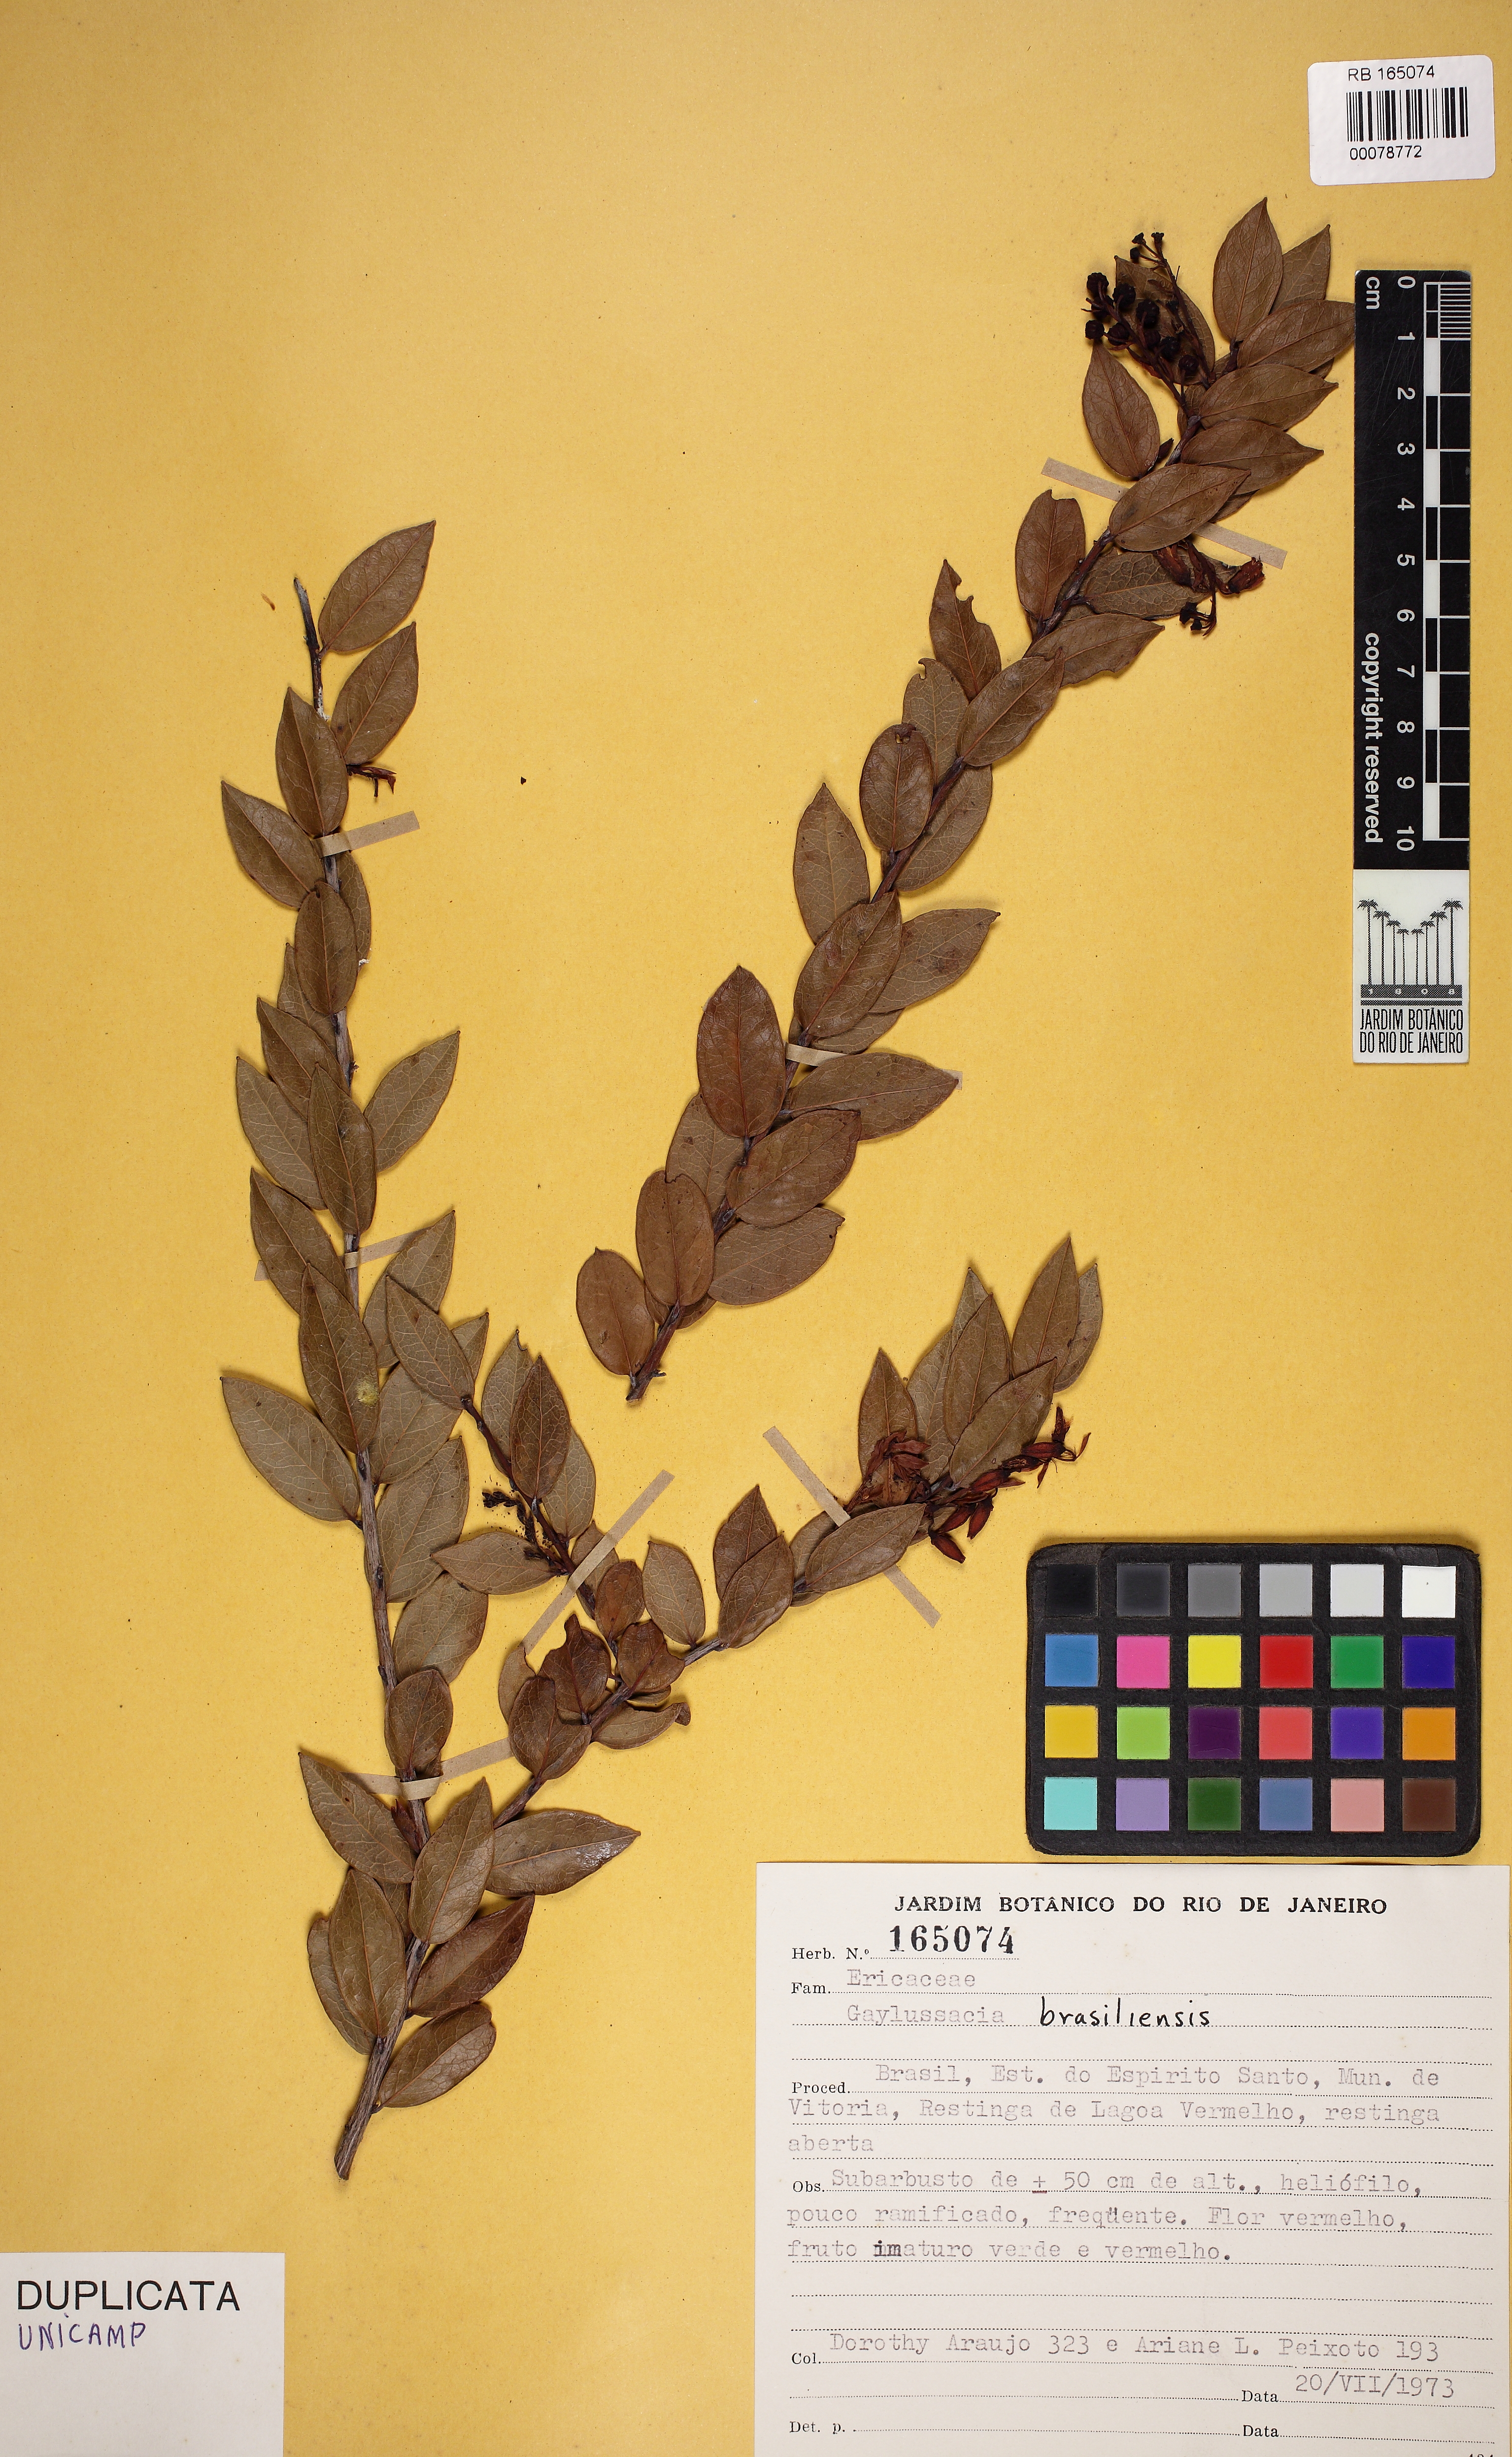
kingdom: Plantae
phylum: Tracheophyta
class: Magnoliopsida
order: Ericales
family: Ericaceae
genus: Gaylussacia
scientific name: Gaylussacia brasiliensis
